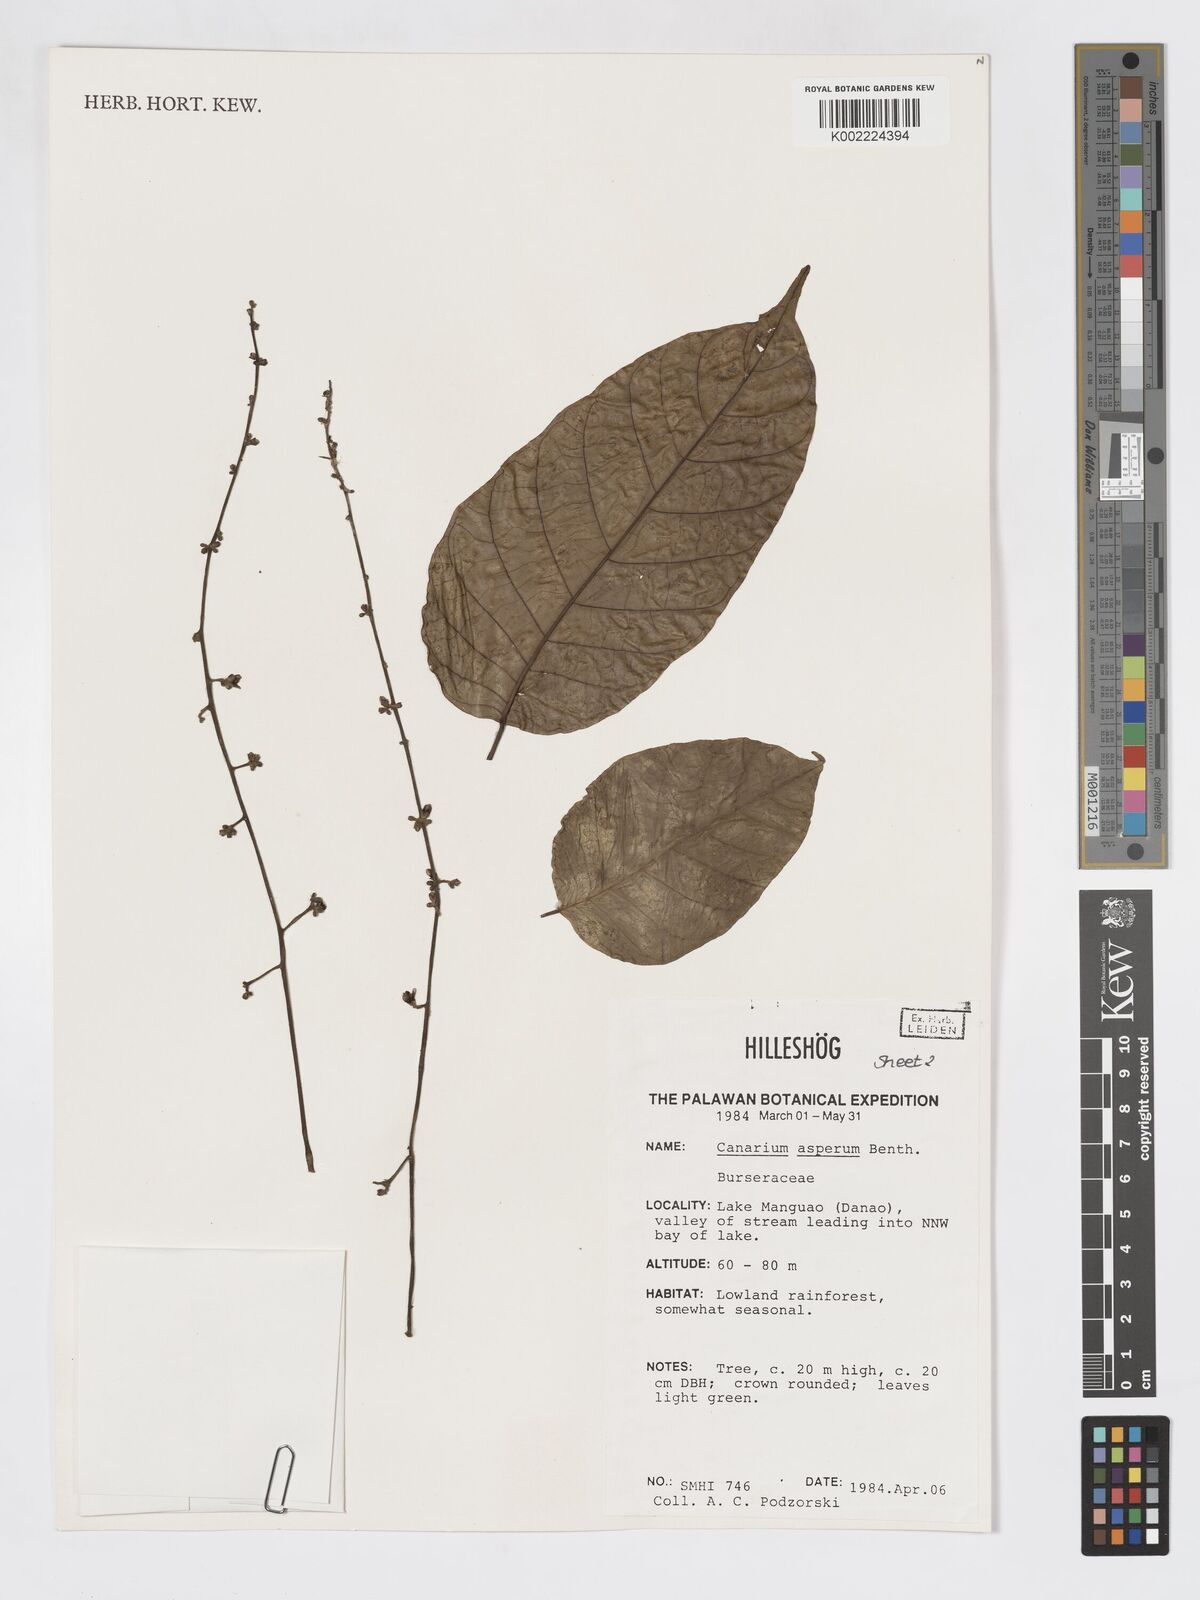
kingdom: Plantae
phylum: Tracheophyta
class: Magnoliopsida
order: Sapindales
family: Burseraceae
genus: Canarium
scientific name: Canarium asperum
